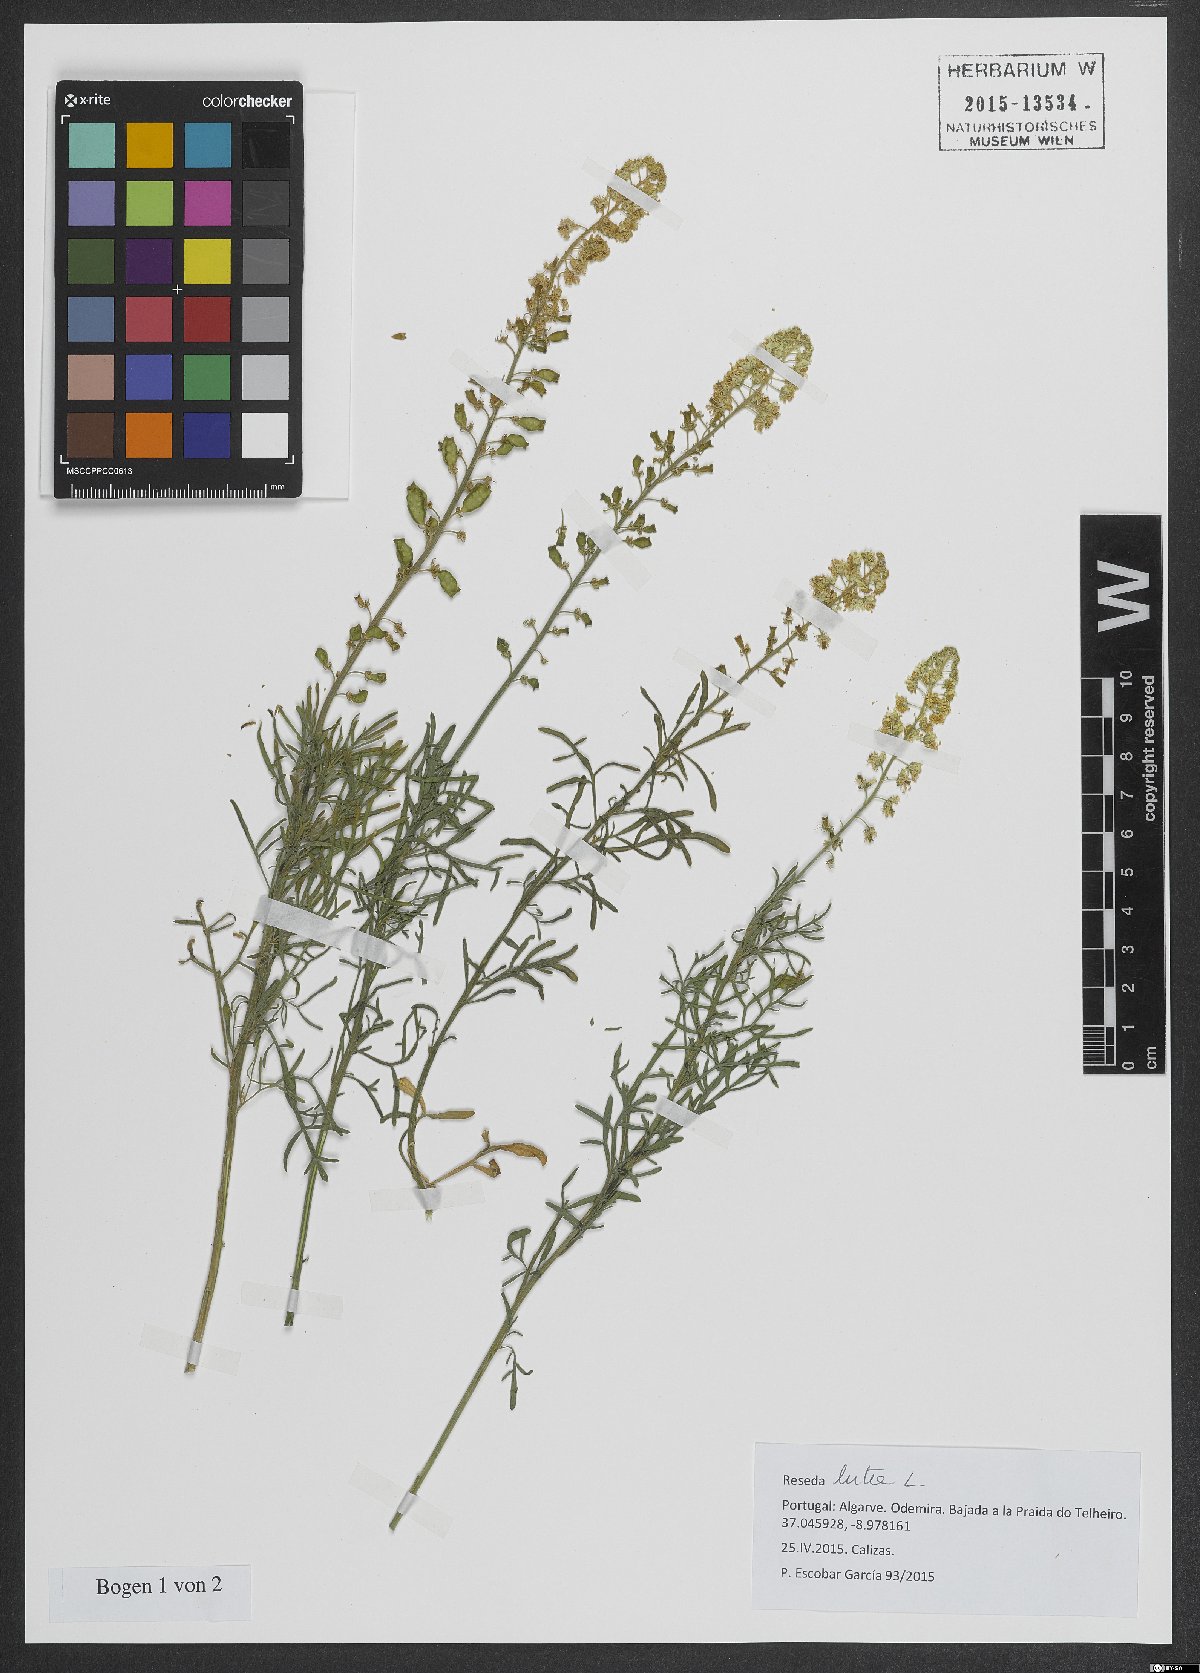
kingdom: Plantae
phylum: Tracheophyta
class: Magnoliopsida
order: Brassicales
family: Resedaceae
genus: Reseda
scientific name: Reseda lutea
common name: Wild mignonette
